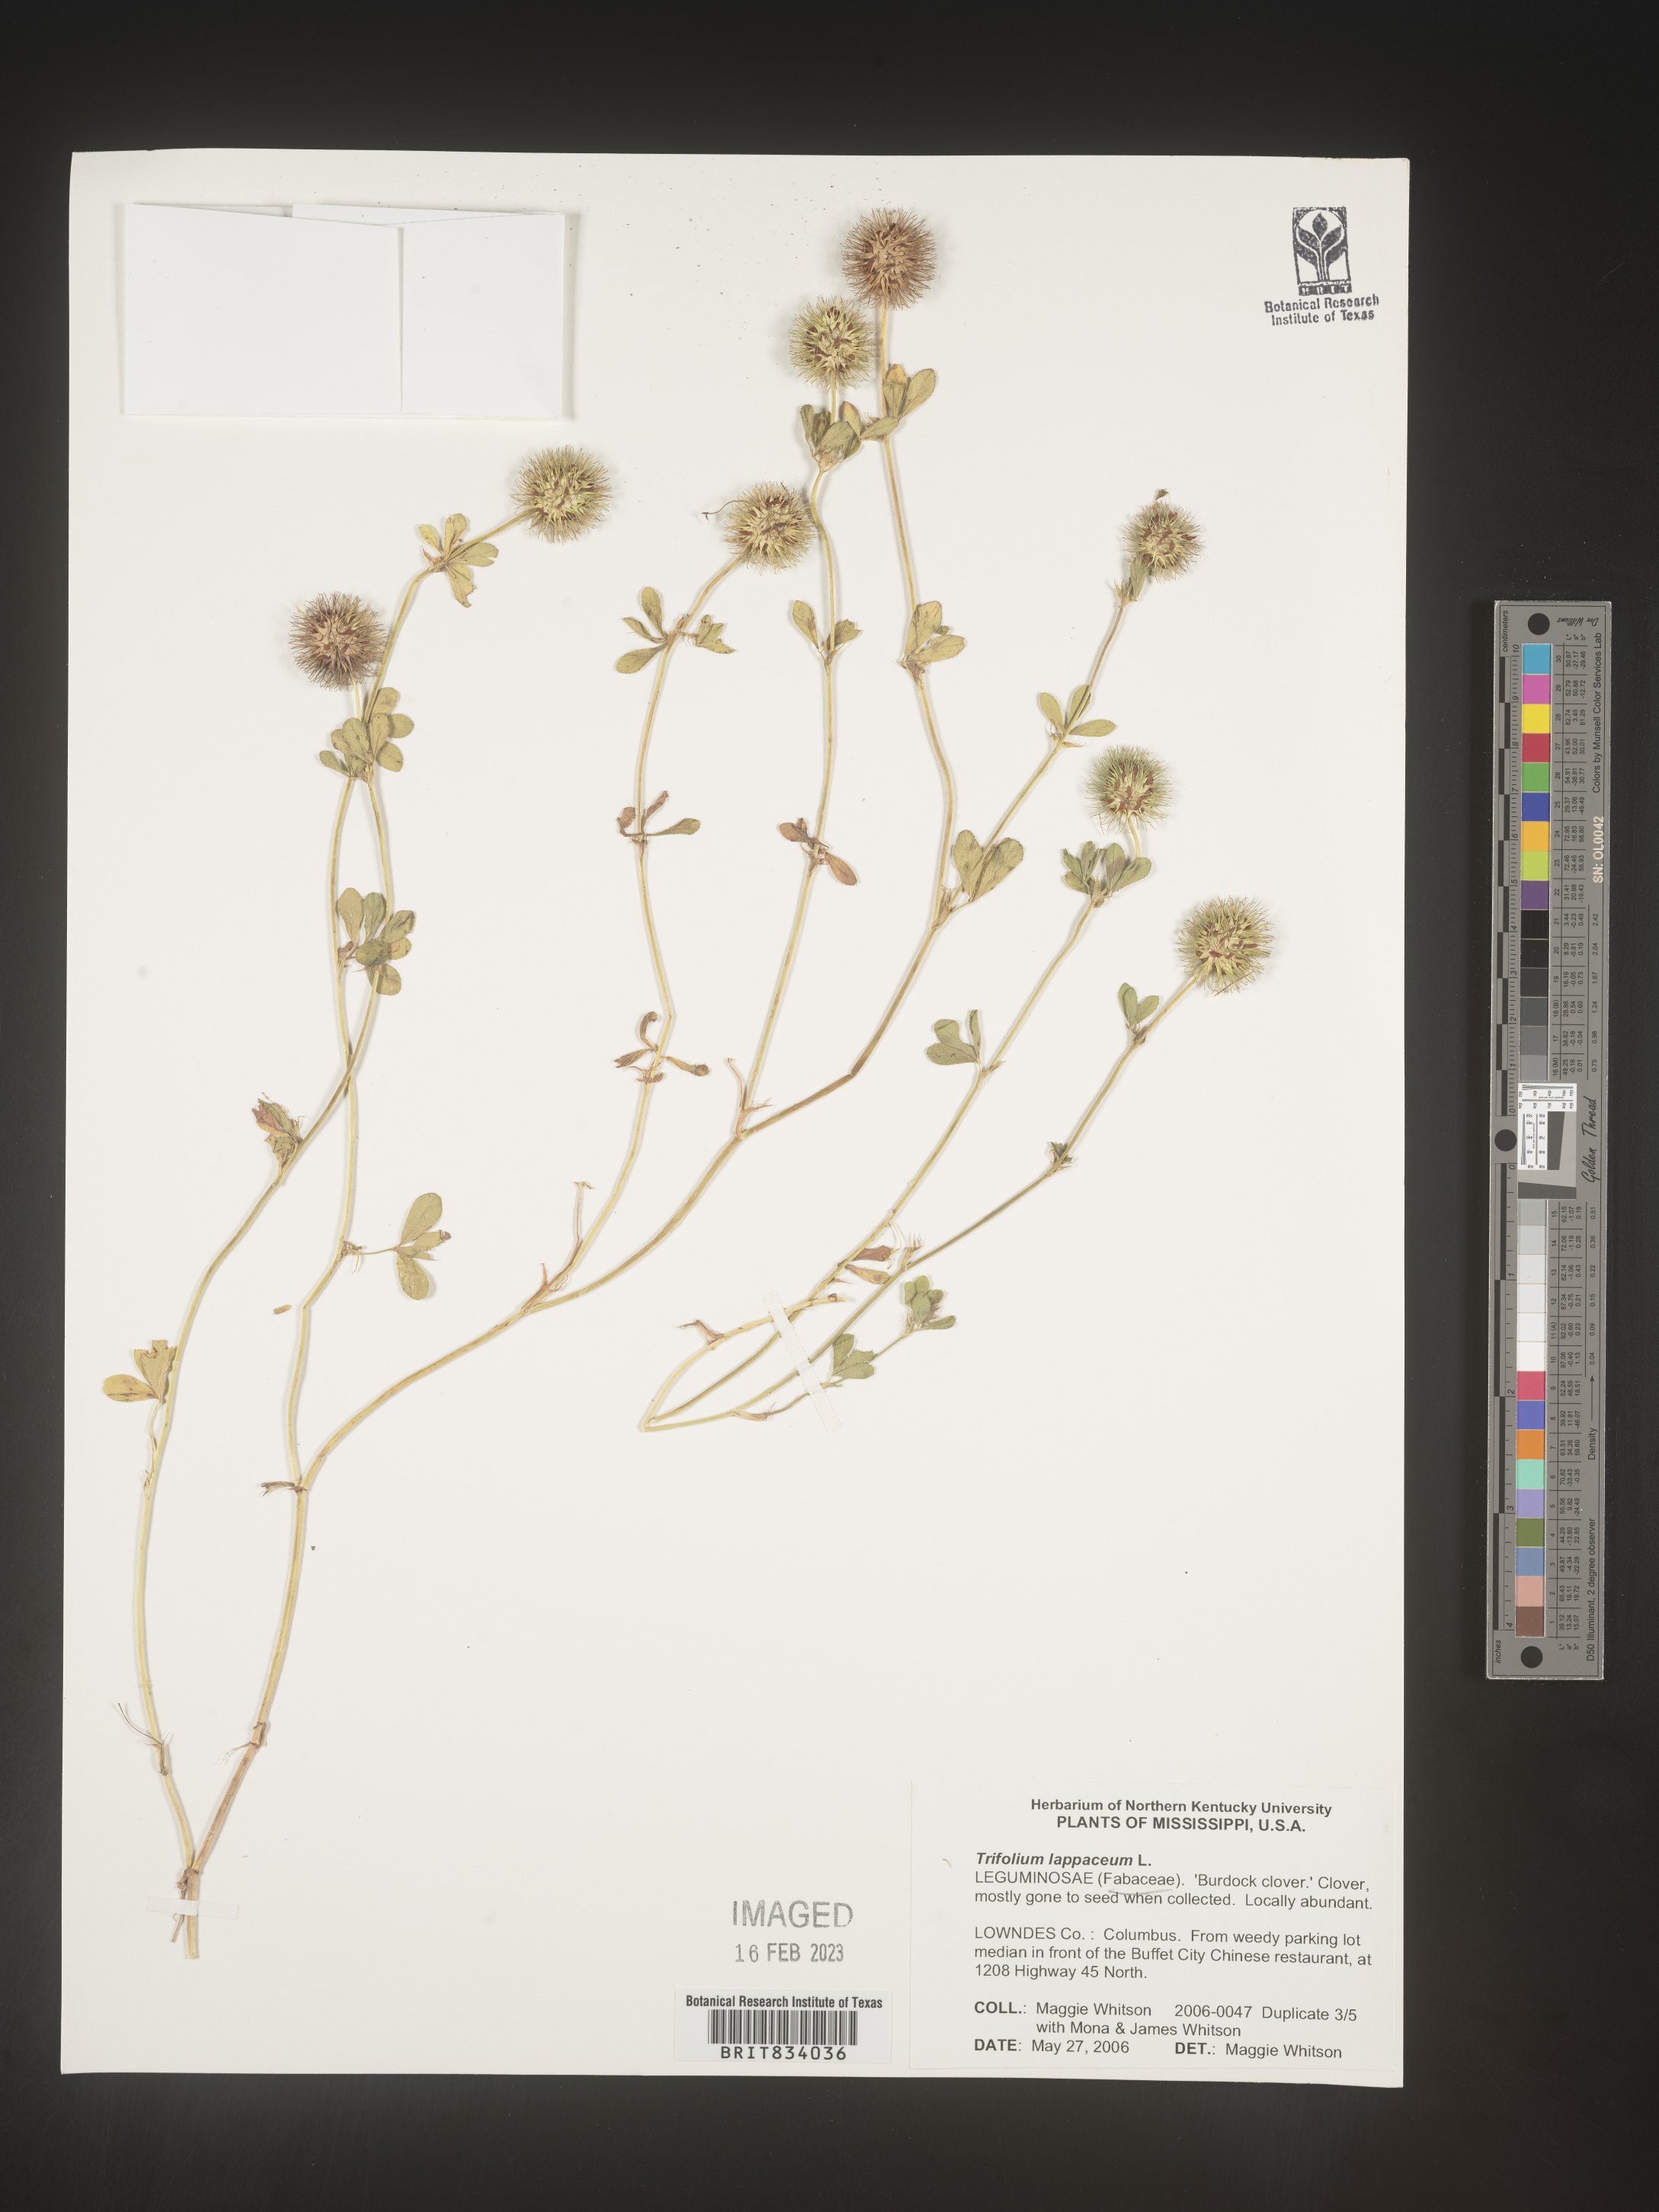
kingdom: Plantae
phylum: Tracheophyta
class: Magnoliopsida
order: Fabales
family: Fabaceae
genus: Trifolium
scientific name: Trifolium
